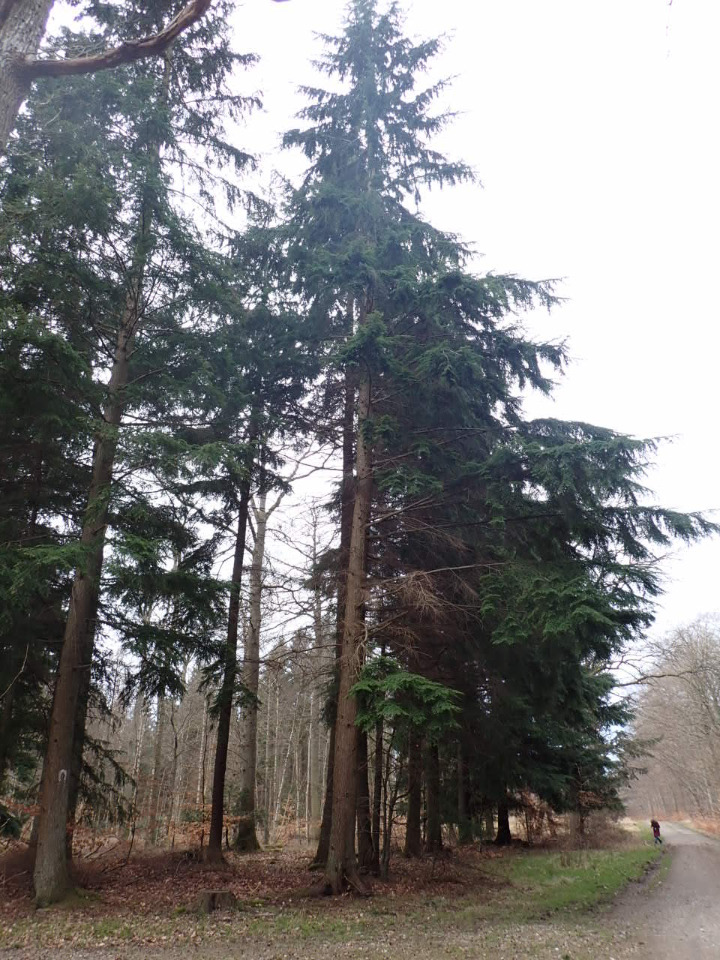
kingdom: Plantae
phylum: Tracheophyta
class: Pinopsida
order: Pinales
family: Pinaceae
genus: Tsuga
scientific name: Tsuga heterophylla
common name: Skarntydegran
